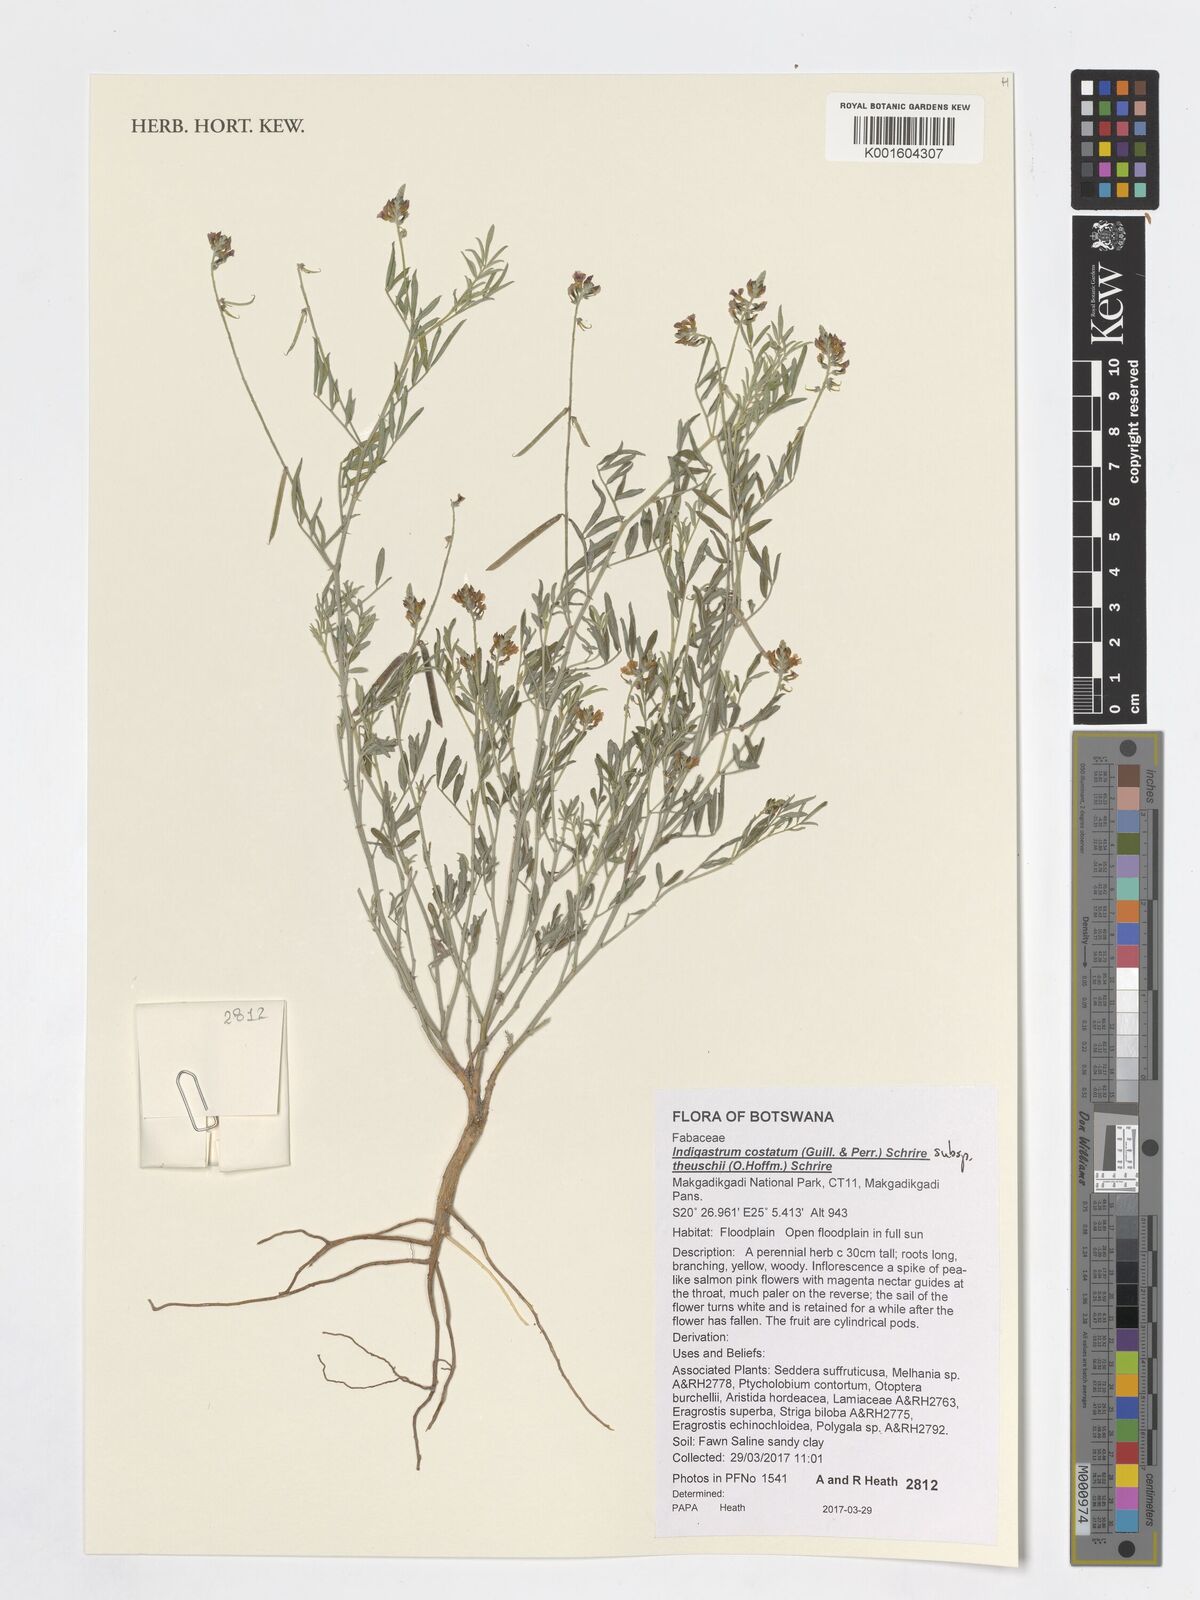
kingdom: Plantae
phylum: Tracheophyta
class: Magnoliopsida
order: Fabales
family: Fabaceae
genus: Indigastrum
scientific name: Indigastrum costatum
